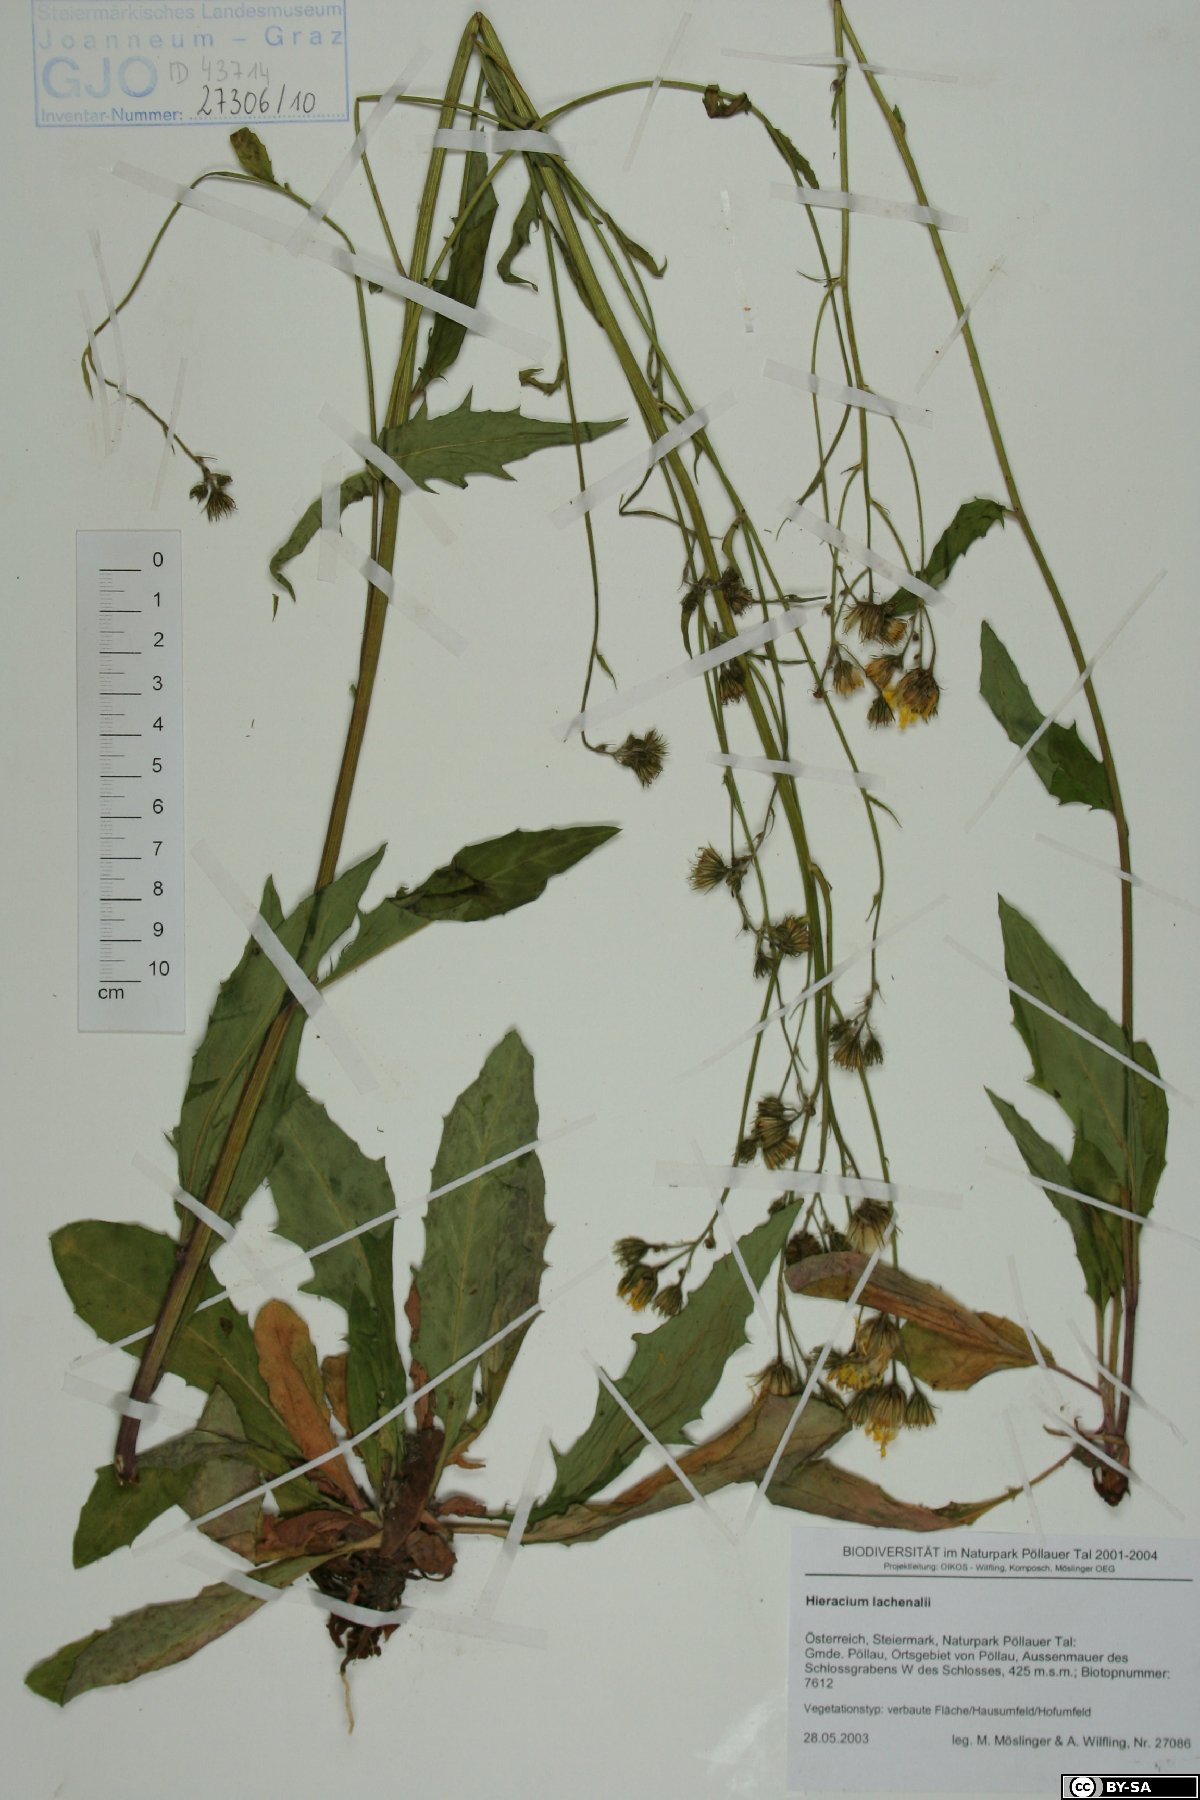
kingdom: Plantae
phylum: Tracheophyta
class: Magnoliopsida
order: Asterales
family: Asteraceae
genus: Hieracium
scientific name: Hieracium lachenalii
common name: Common hawkweed
